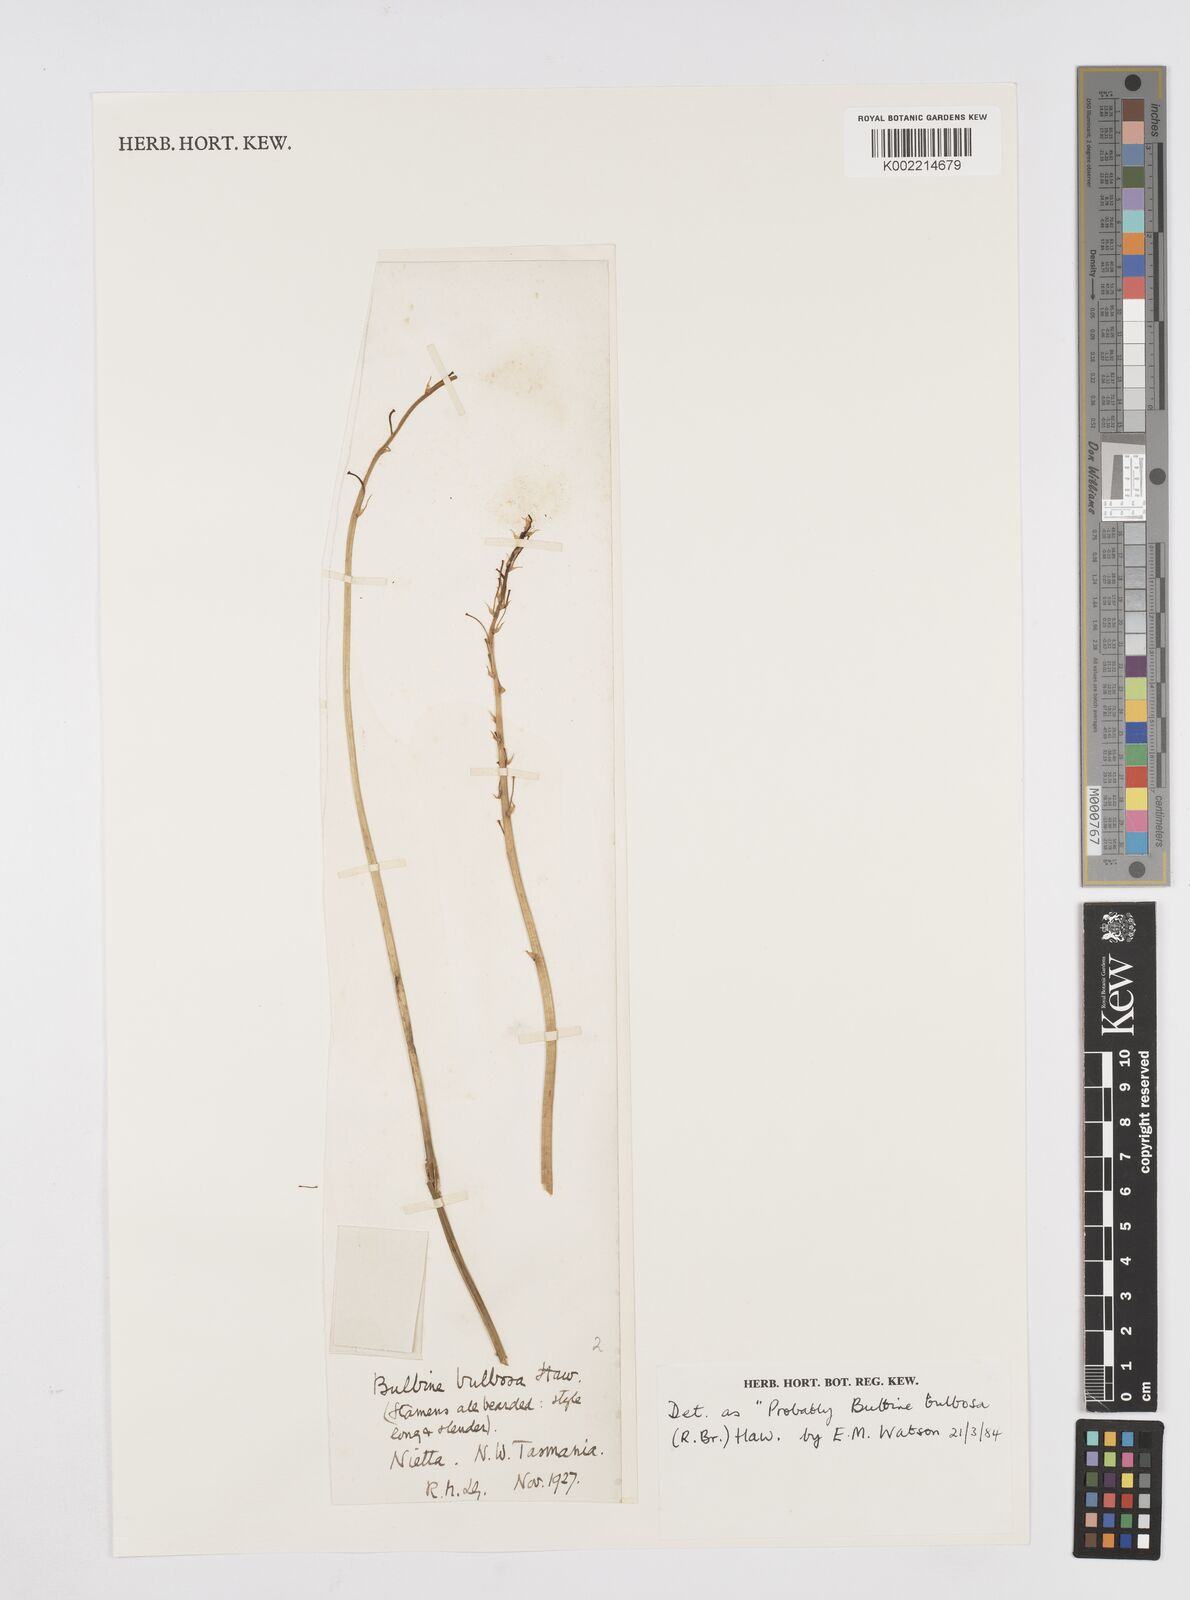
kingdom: Plantae
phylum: Tracheophyta
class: Liliopsida
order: Asparagales
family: Asphodelaceae
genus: Bulbine
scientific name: Bulbine bulbosa
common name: Golden-lily
